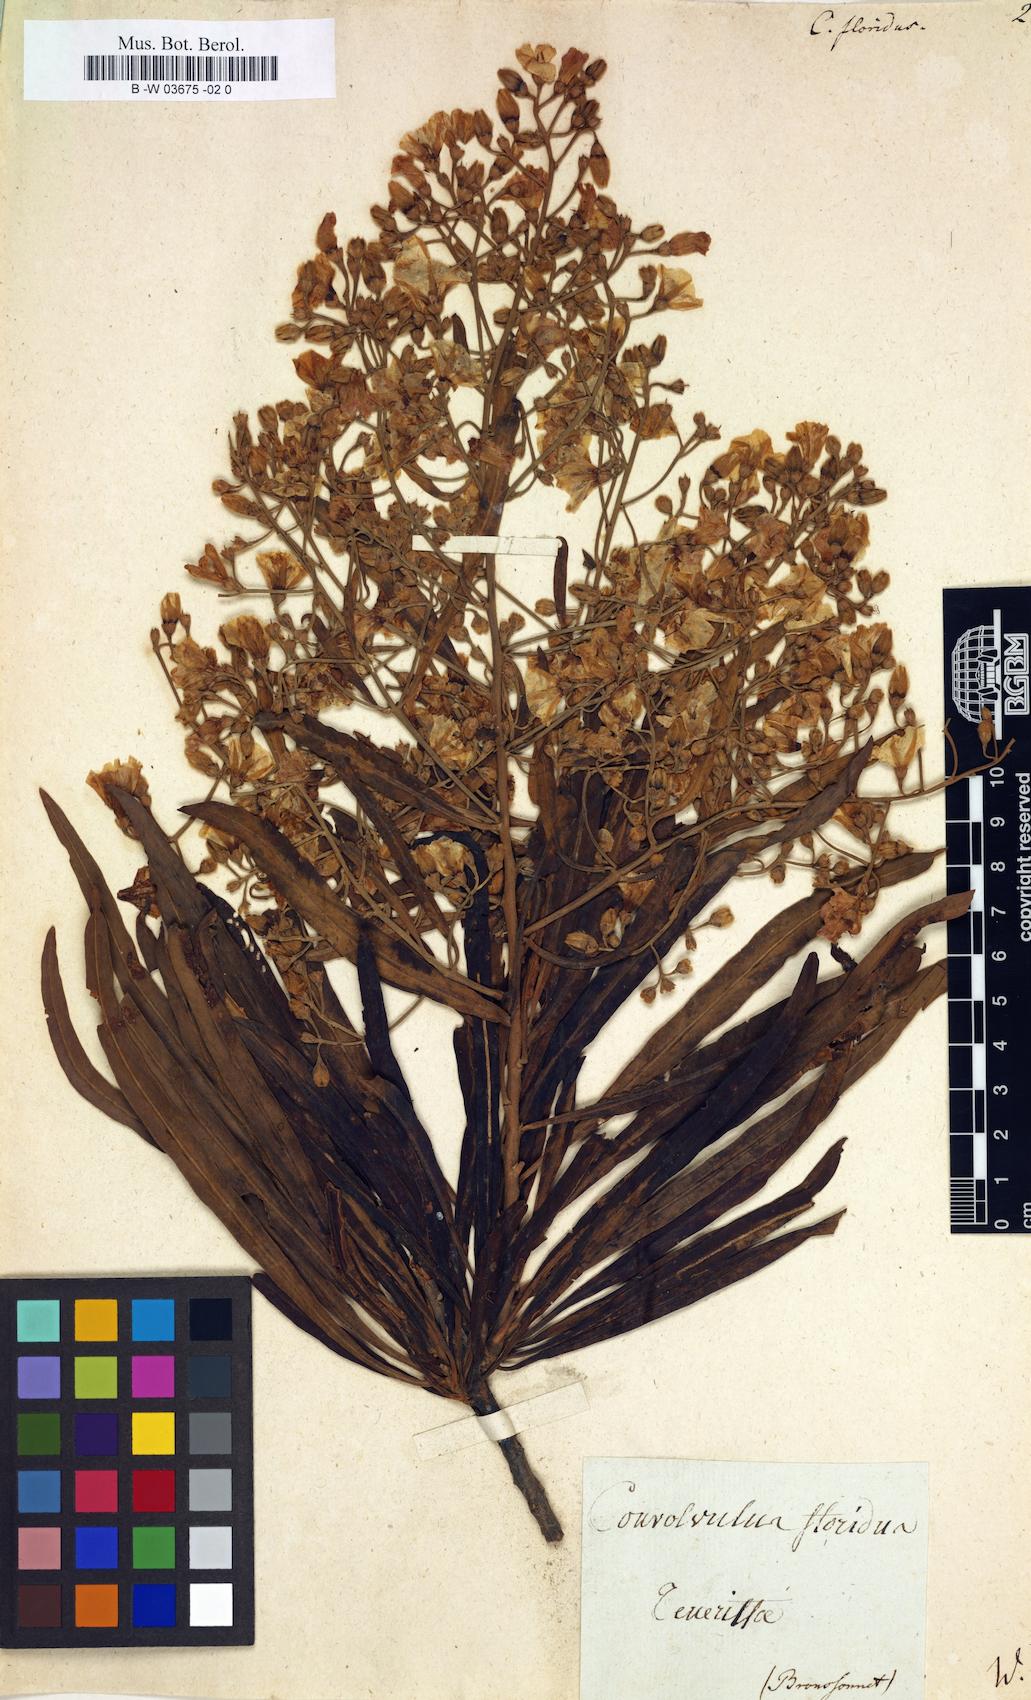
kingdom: Plantae
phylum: Tracheophyta
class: Magnoliopsida
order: Solanales
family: Convolvulaceae
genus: Convolvulus
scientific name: Convolvulus floridus
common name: Guadil
